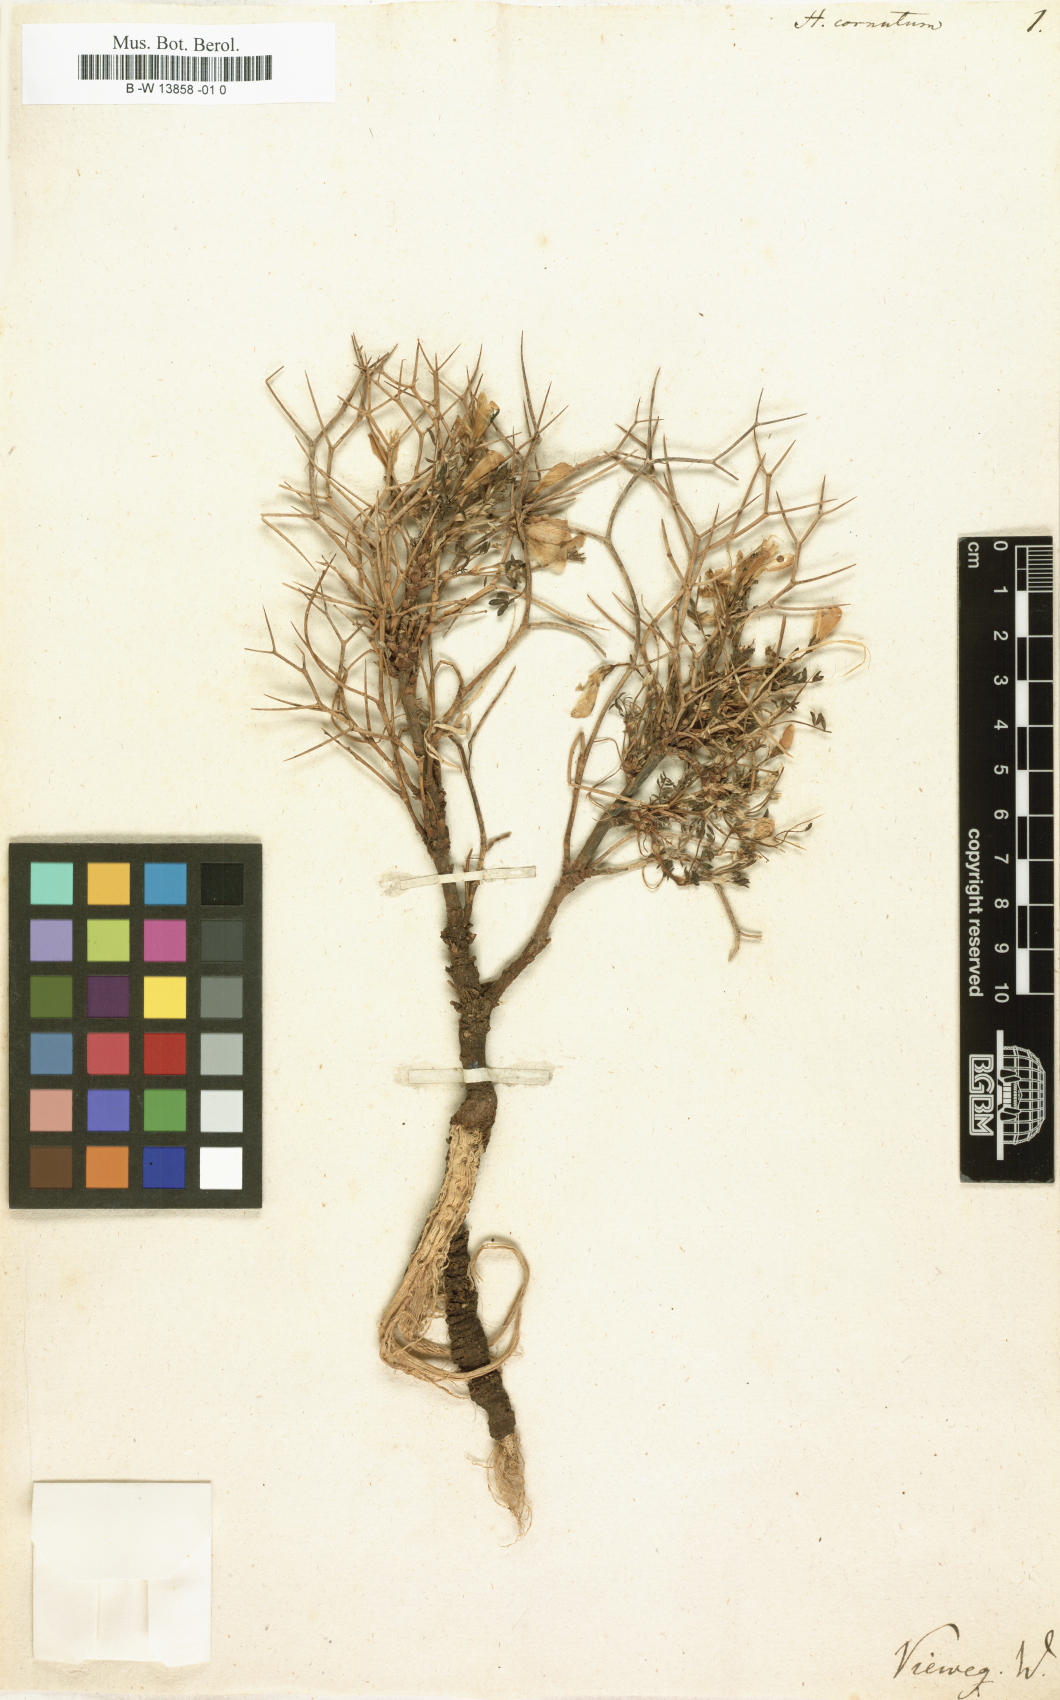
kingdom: Plantae
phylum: Tracheophyta
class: Magnoliopsida
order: Fabales
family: Fabaceae
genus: Onobrychis
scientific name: Onobrychis cornuta
